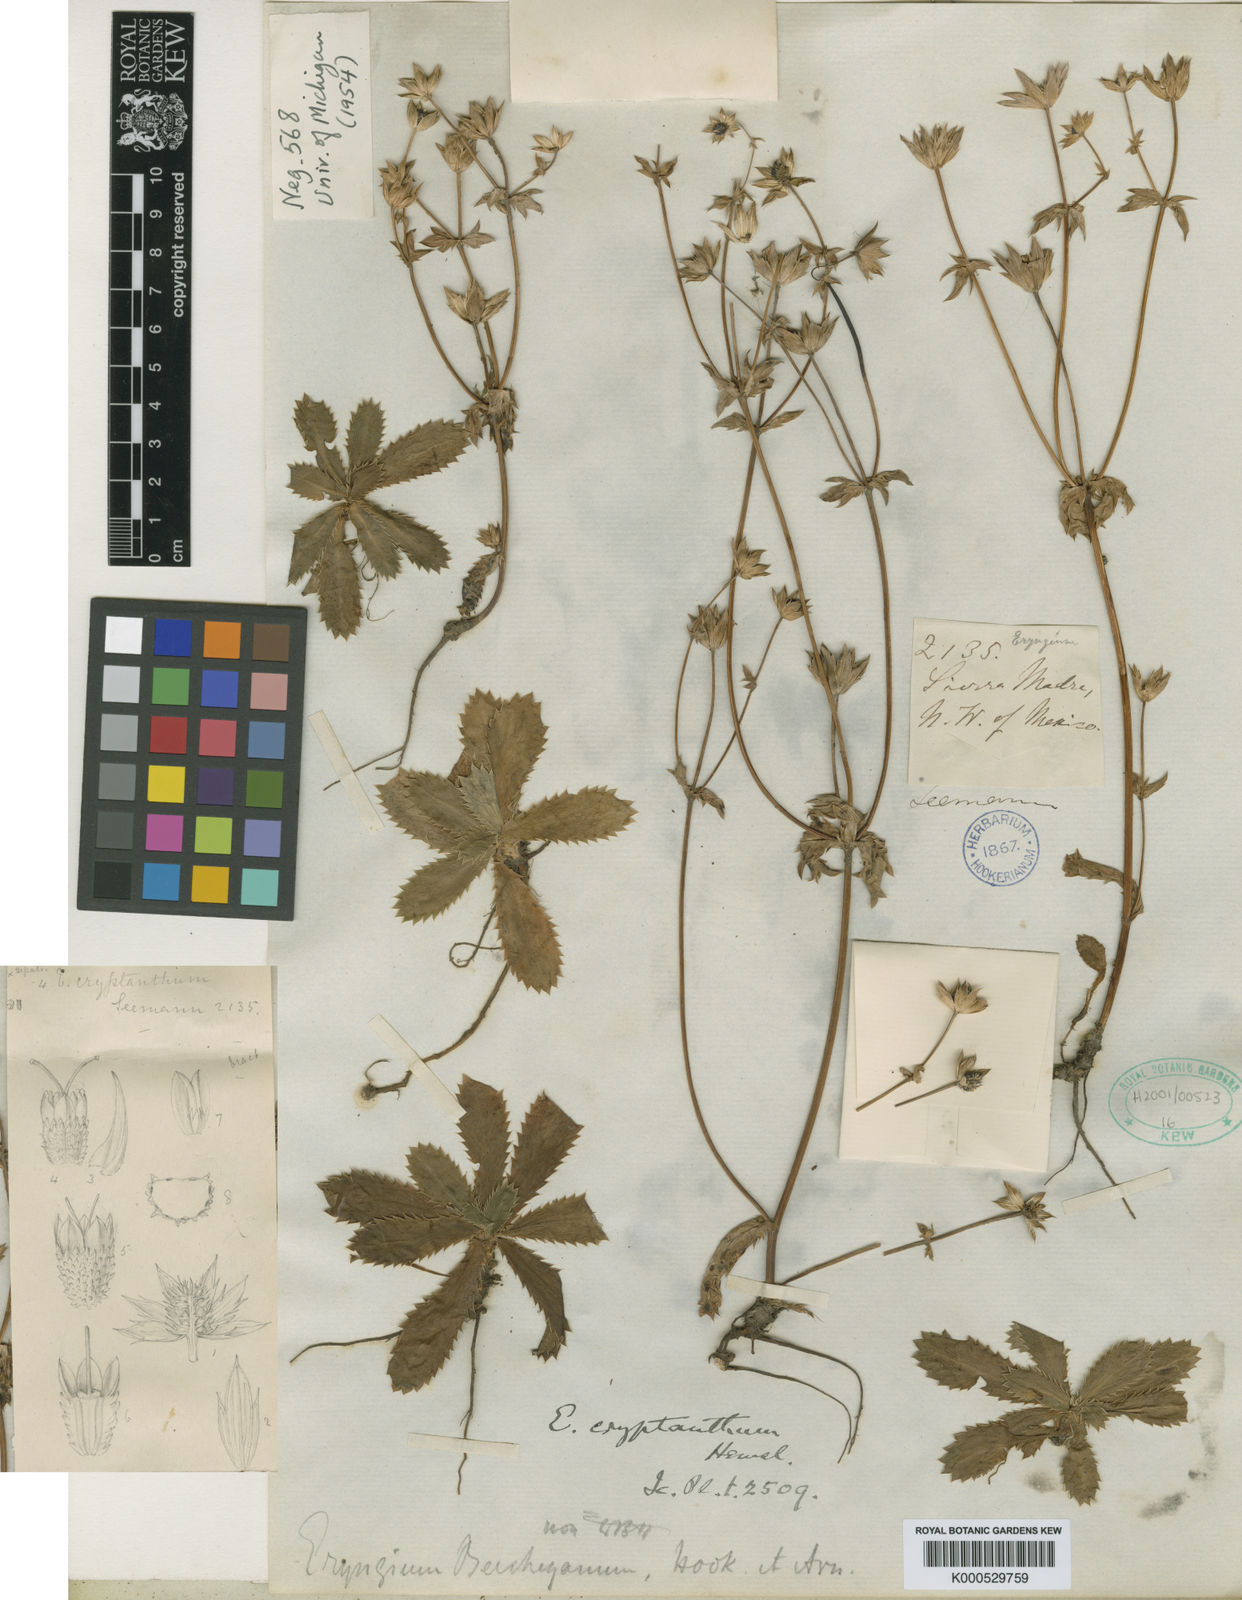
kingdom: Plantae
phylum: Tracheophyta
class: Magnoliopsida
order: Apiales
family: Apiaceae
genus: Eryngium
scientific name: Eryngium beecheyanum
